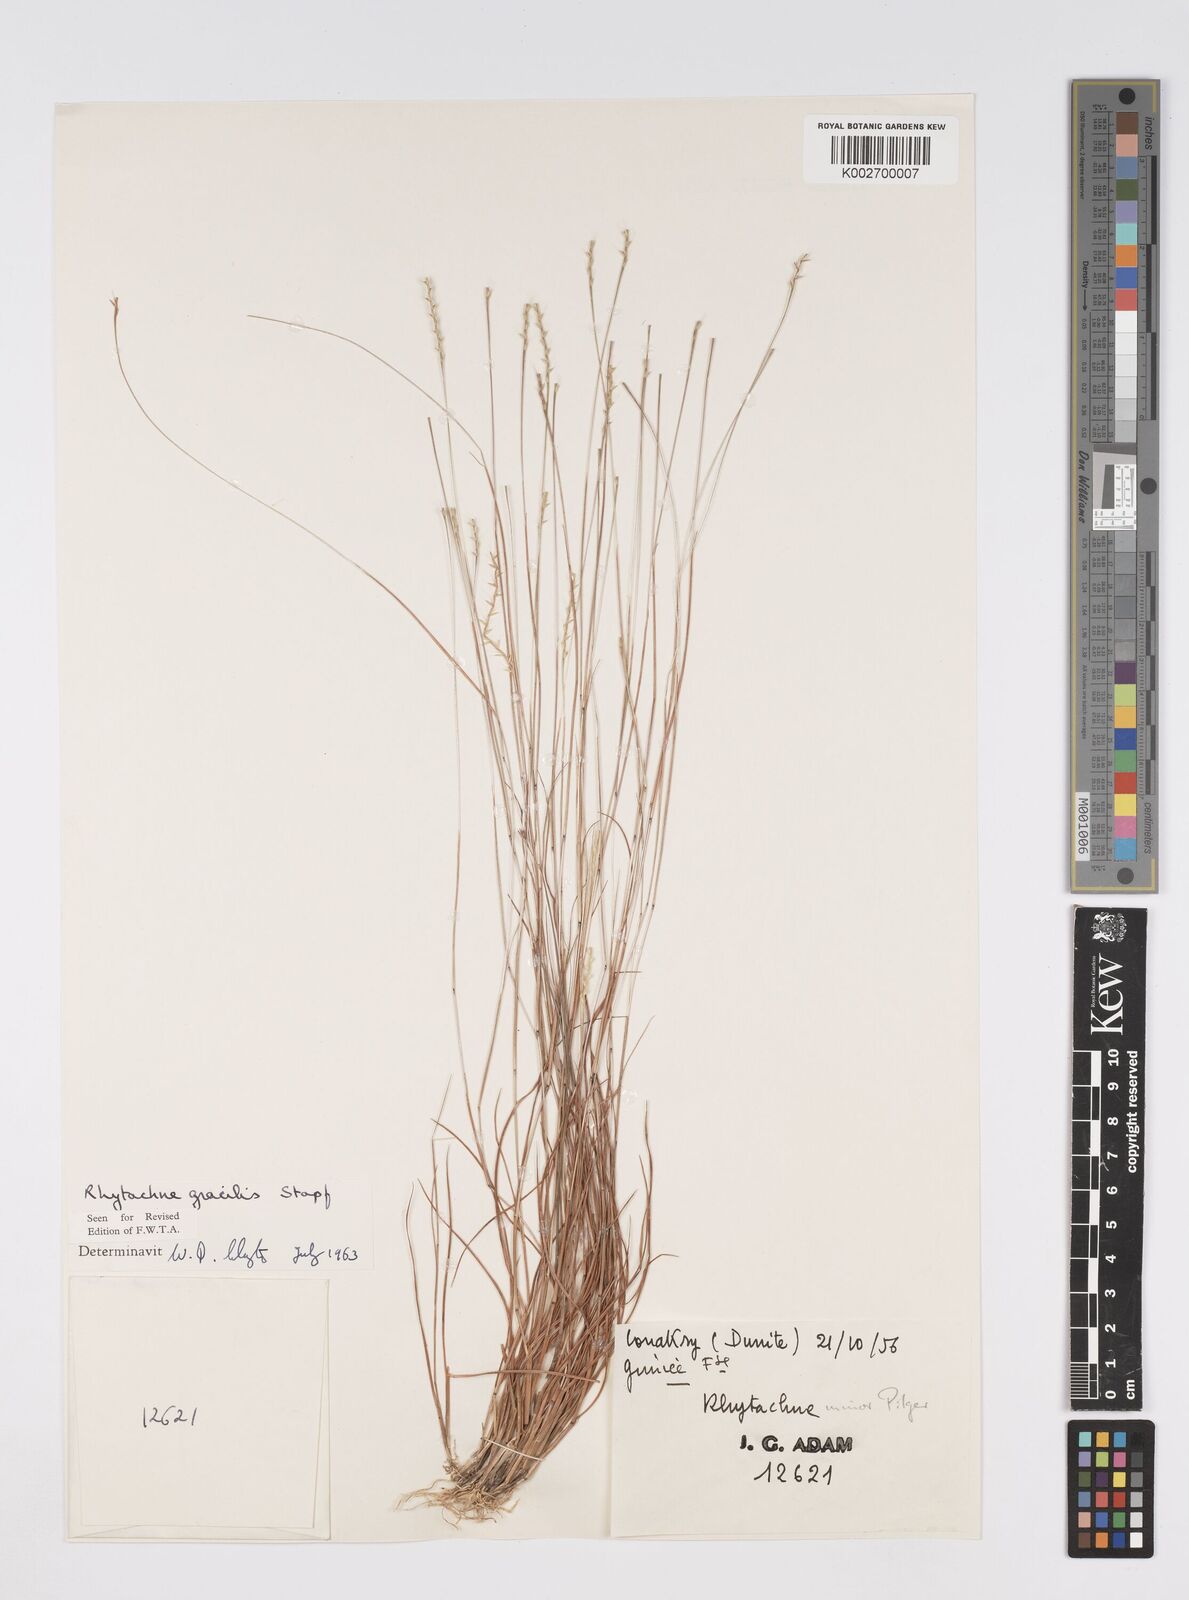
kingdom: Plantae
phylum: Tracheophyta
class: Liliopsida
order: Poales
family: Poaceae
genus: Rhytachne
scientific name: Rhytachne gracilis
